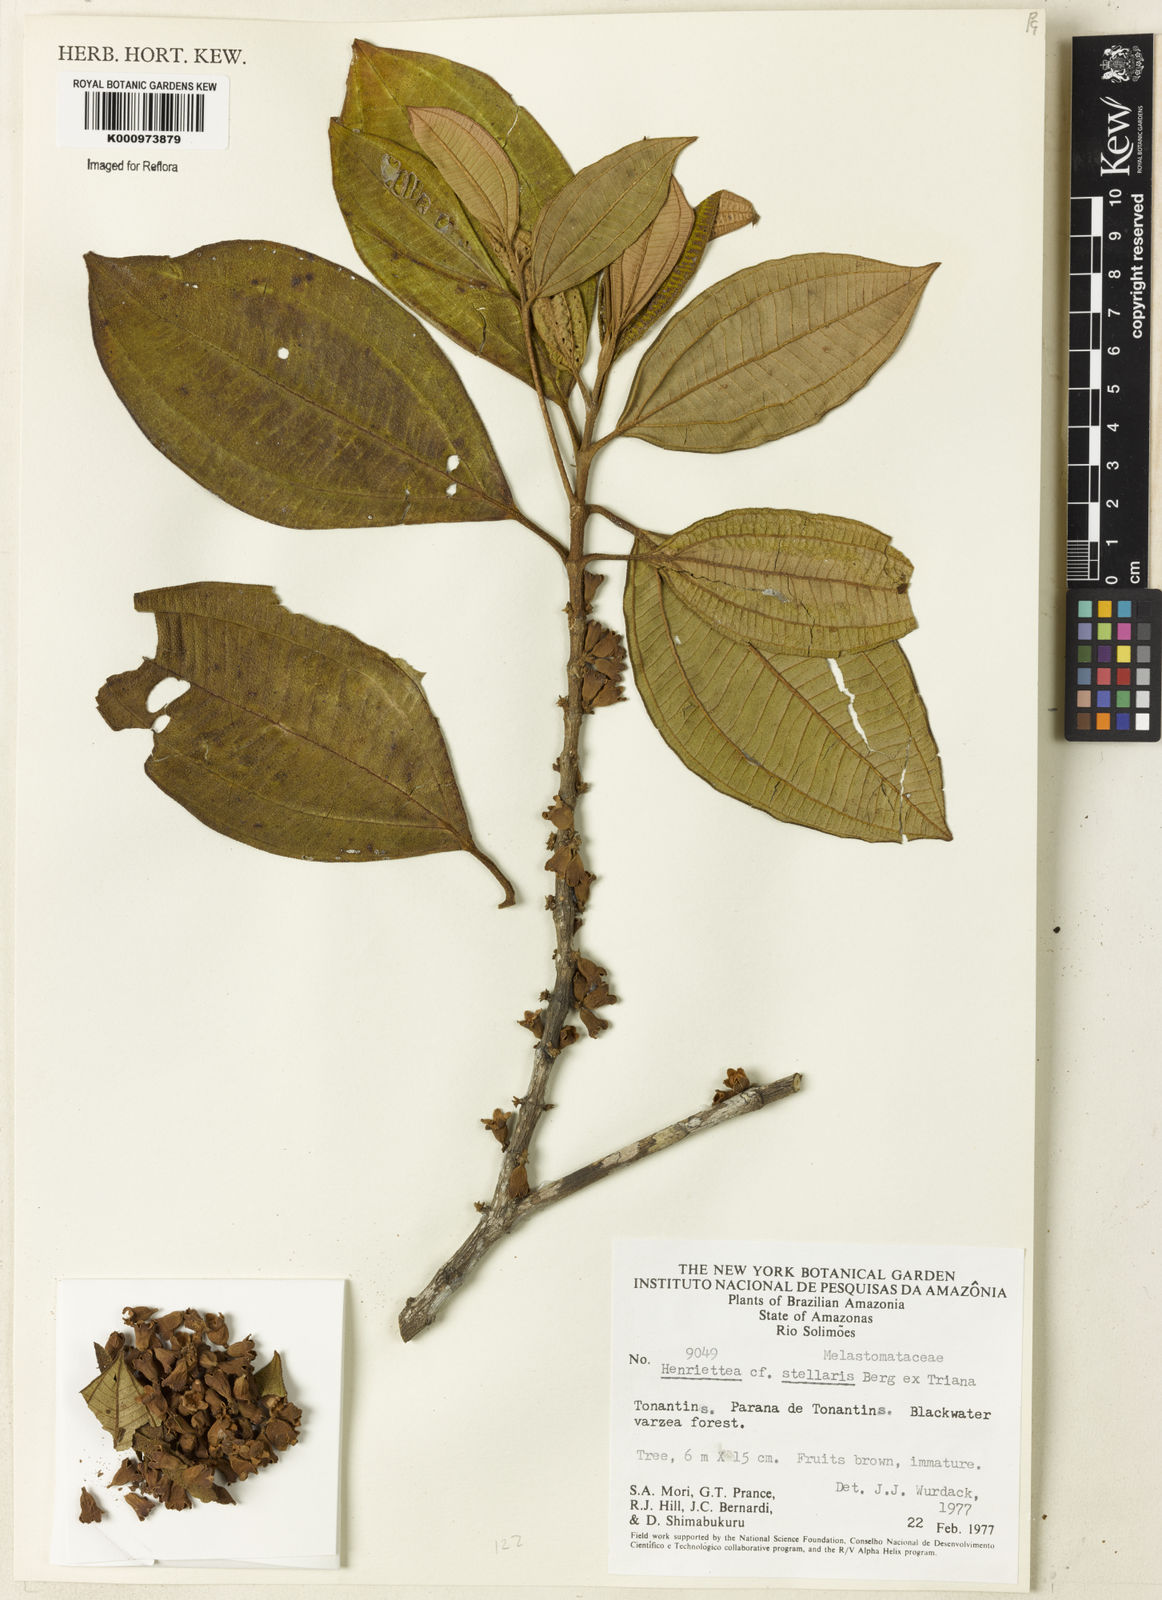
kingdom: Plantae
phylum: Tracheophyta
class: Magnoliopsida
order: Myrtales
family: Melastomataceae
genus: Henriettea
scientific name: Henriettea stellaris
